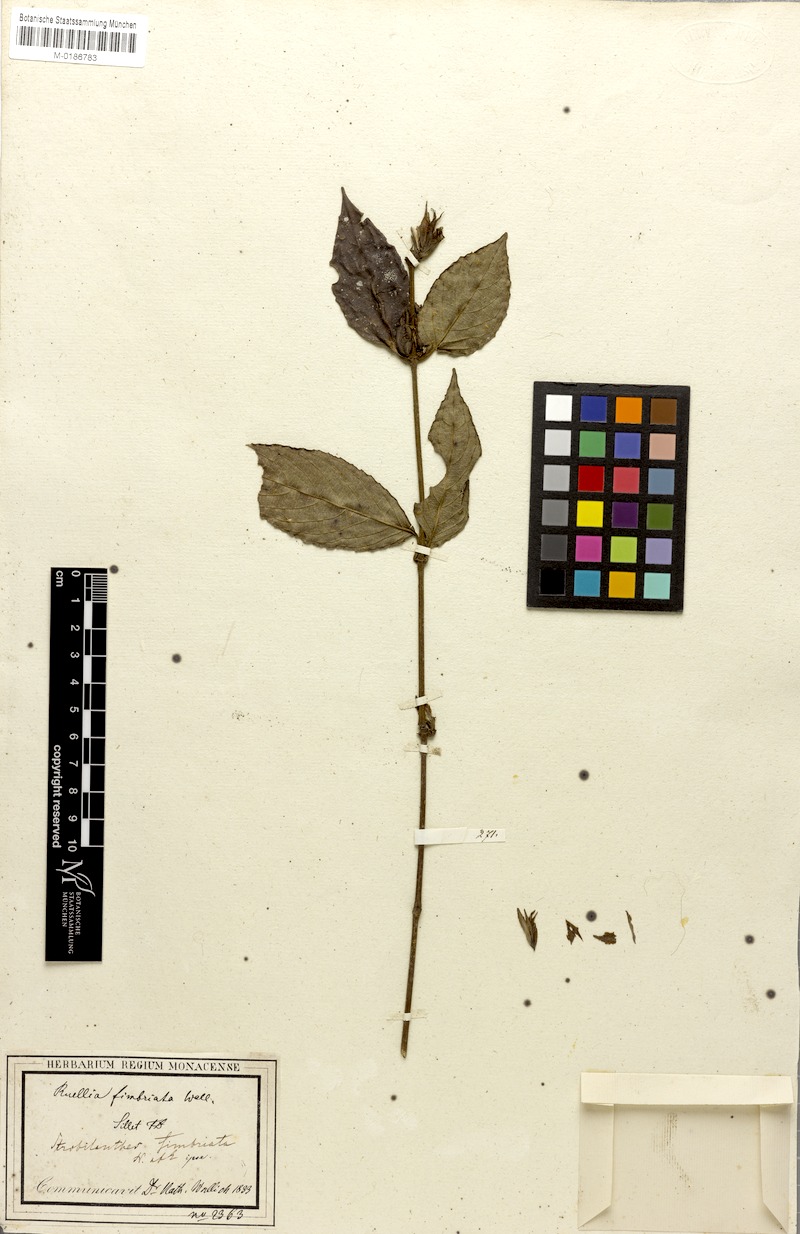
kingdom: Plantae
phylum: Tracheophyta
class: Magnoliopsida
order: Lamiales
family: Acanthaceae
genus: Strobilanthes
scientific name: Strobilanthes fimbriata
